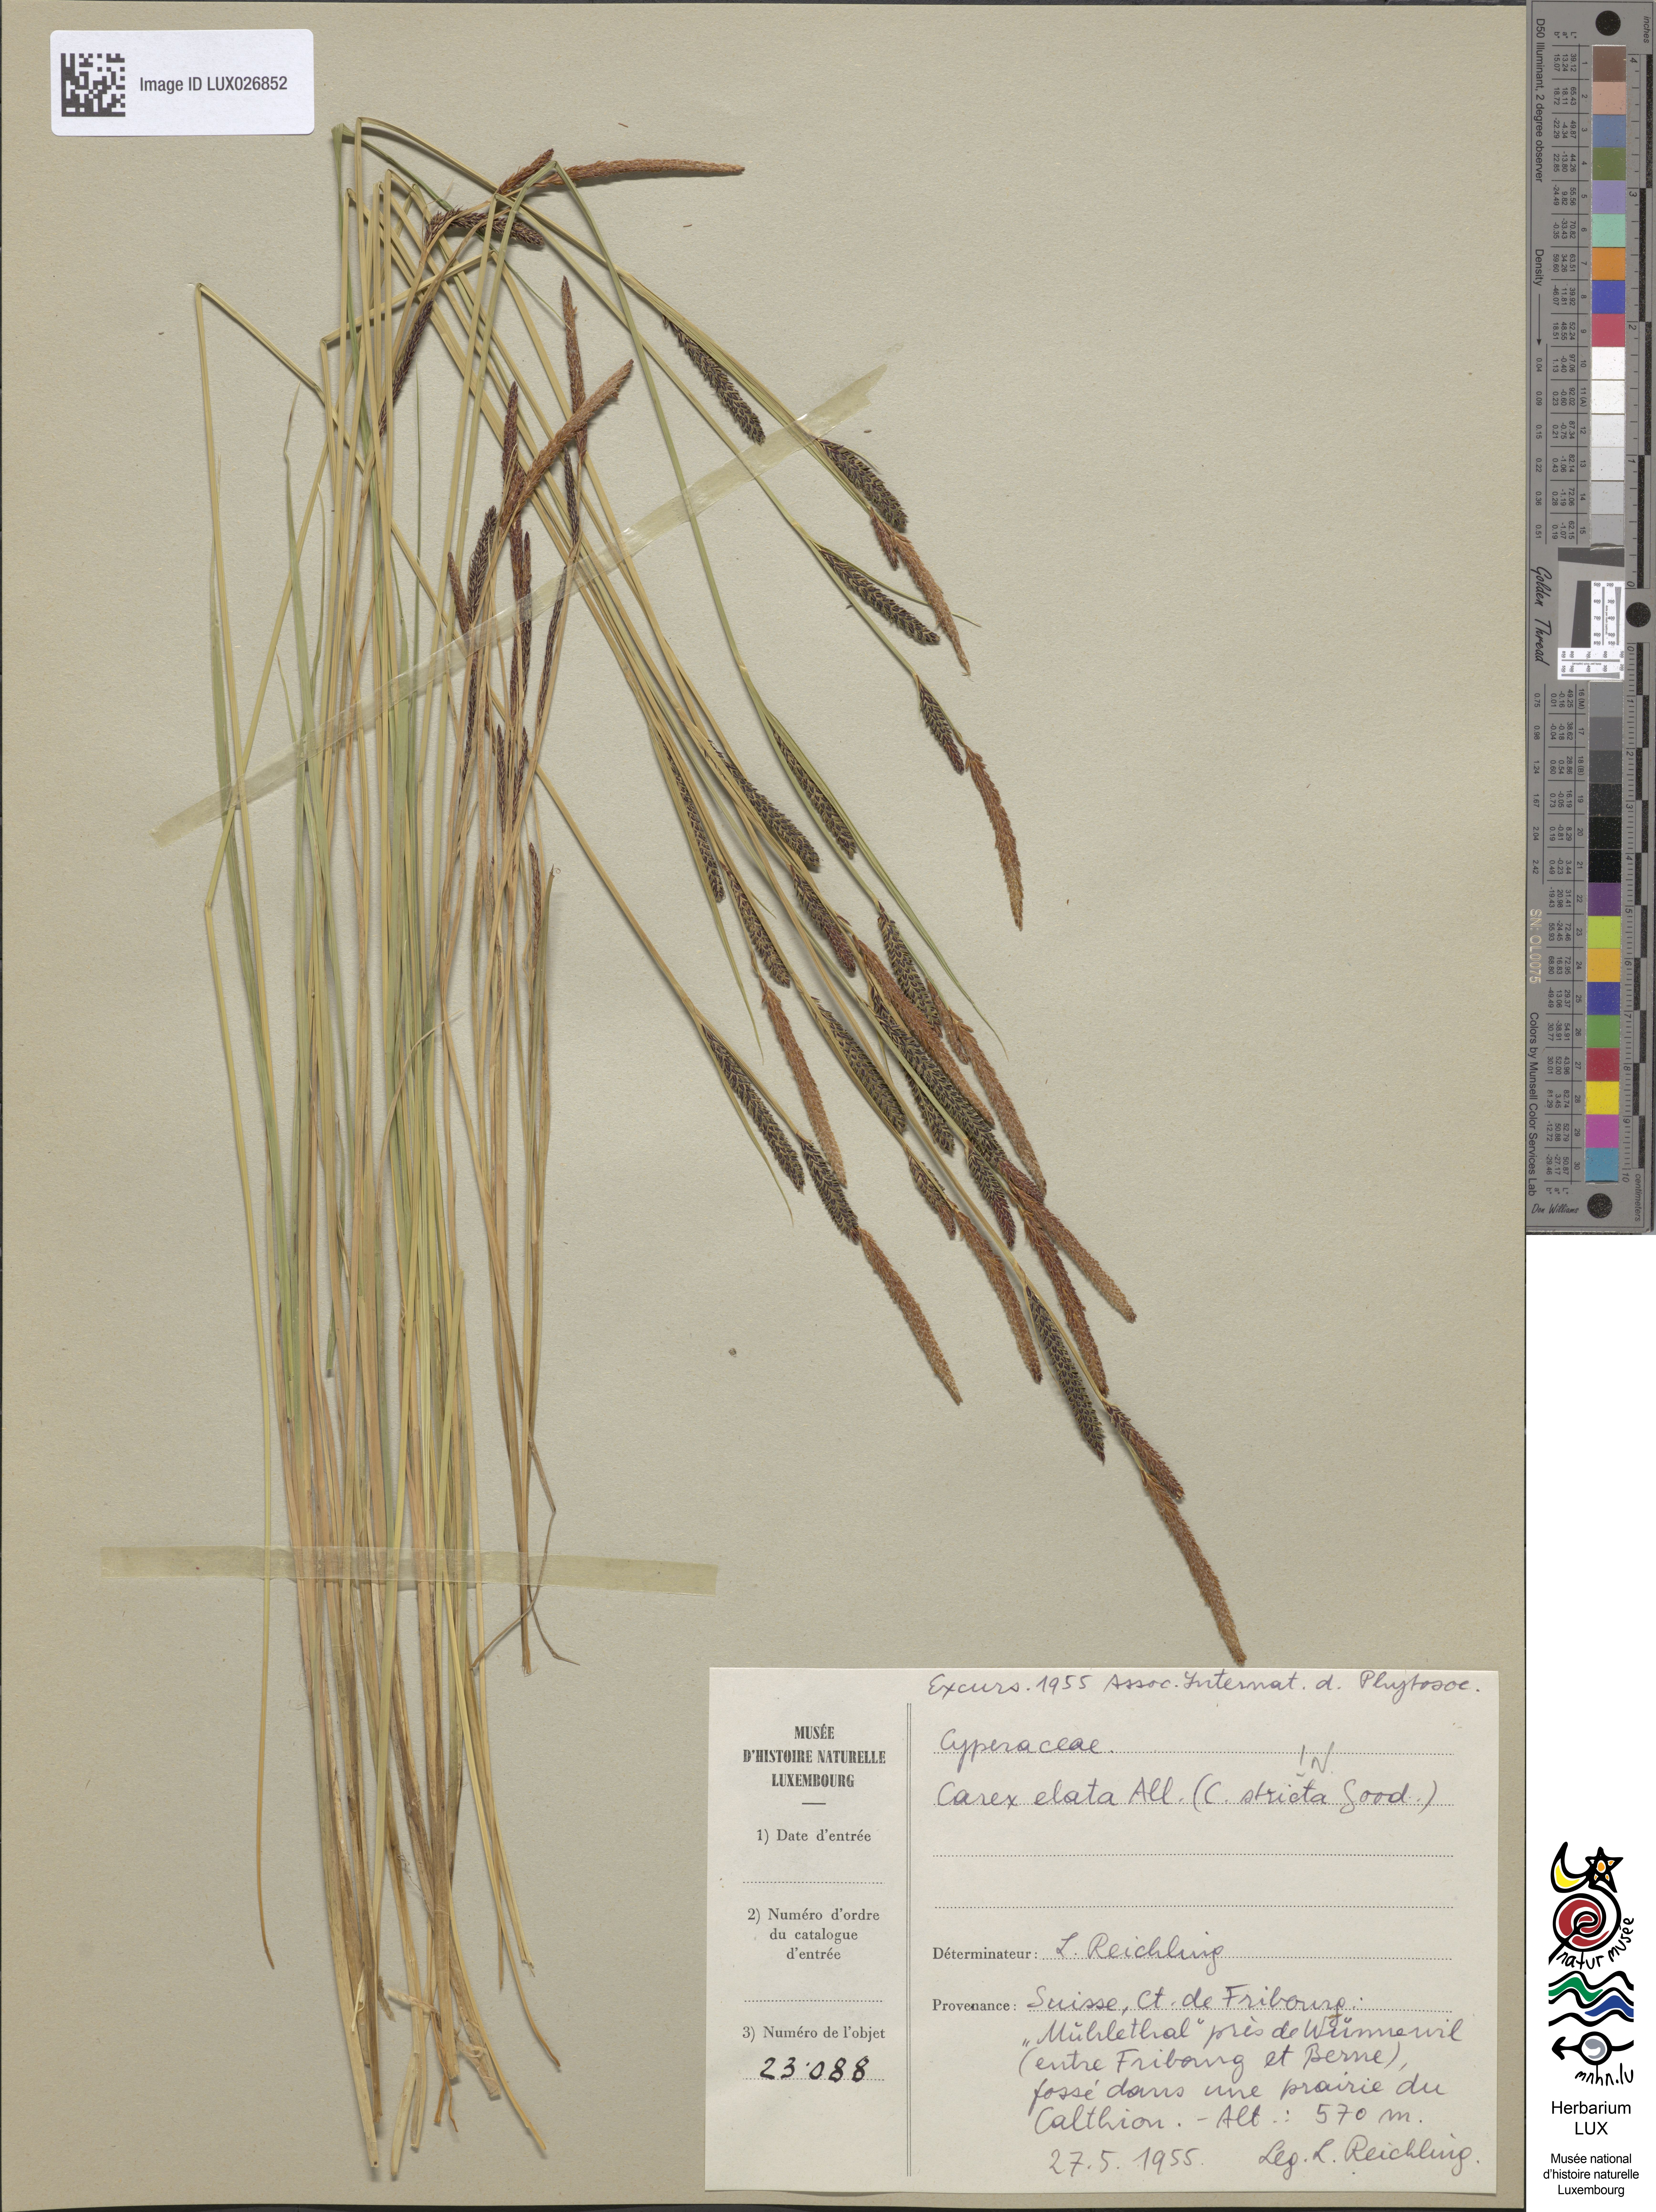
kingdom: Plantae
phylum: Tracheophyta
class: Liliopsida
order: Poales
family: Cyperaceae
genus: Carex
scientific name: Carex elata
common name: Tufted sedge
